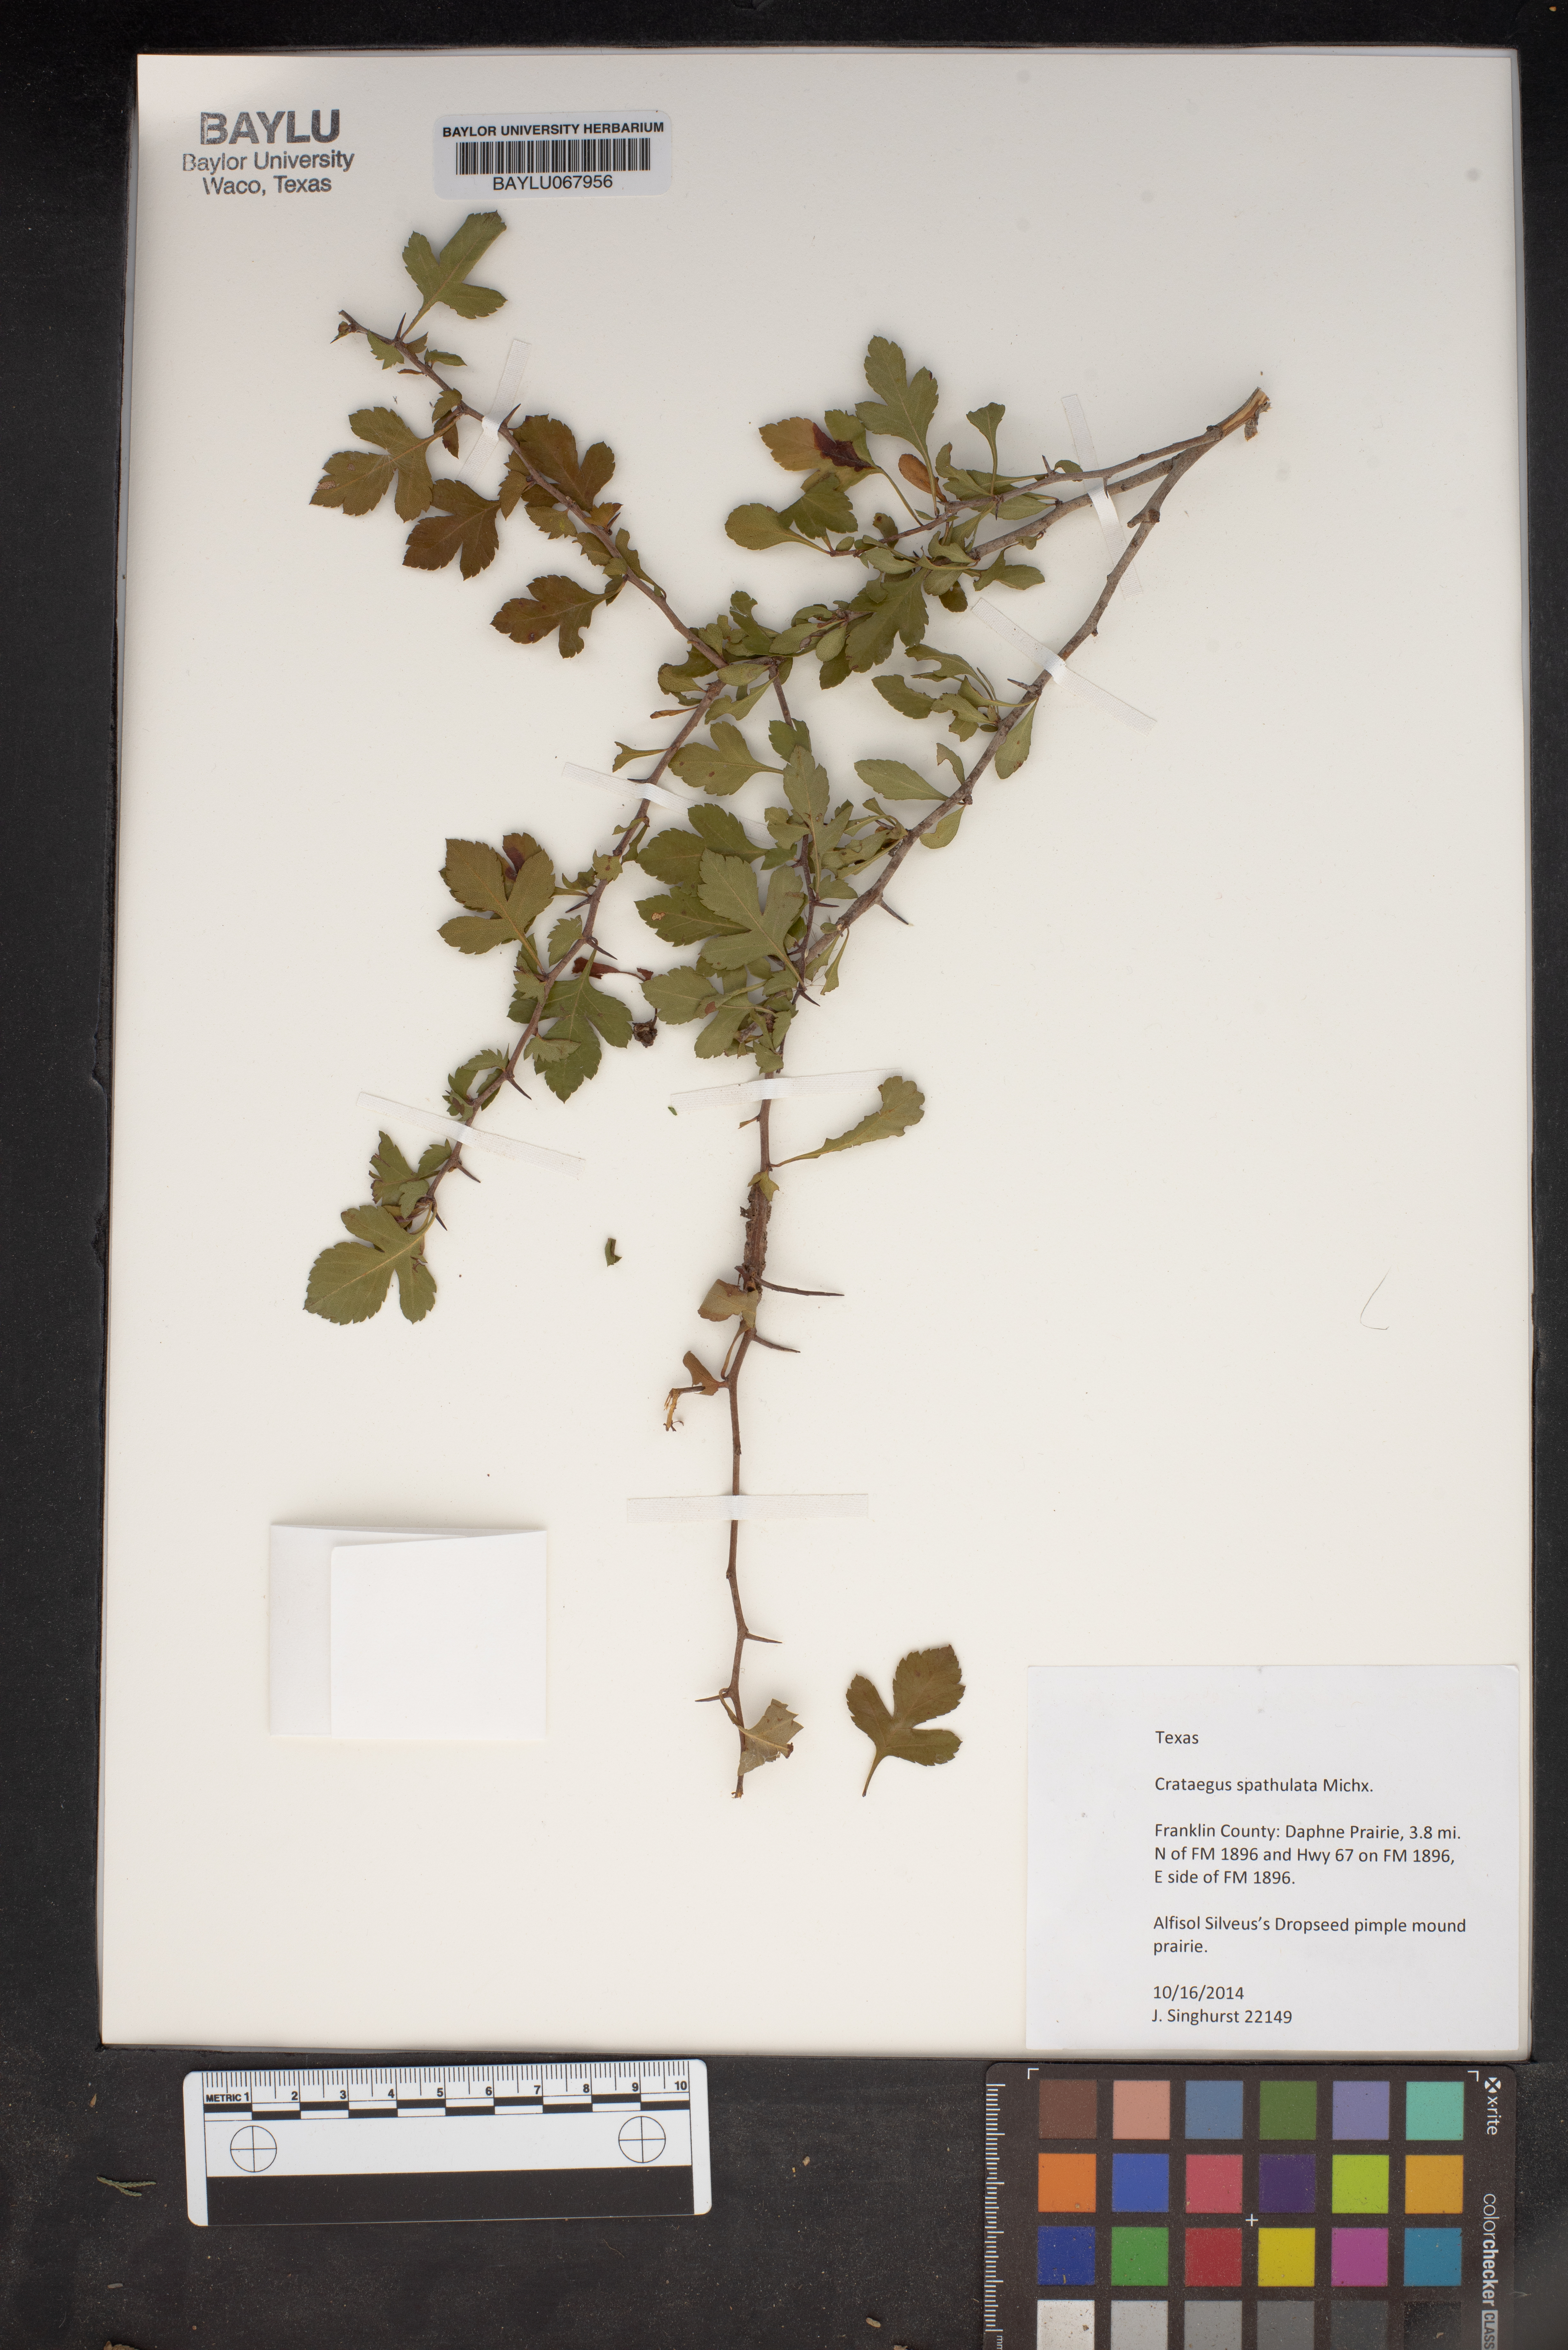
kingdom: Plantae
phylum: Tracheophyta
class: Magnoliopsida
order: Rosales
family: Rosaceae
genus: Crataegus
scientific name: Crataegus spathulata
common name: Littlehip hawthorn
